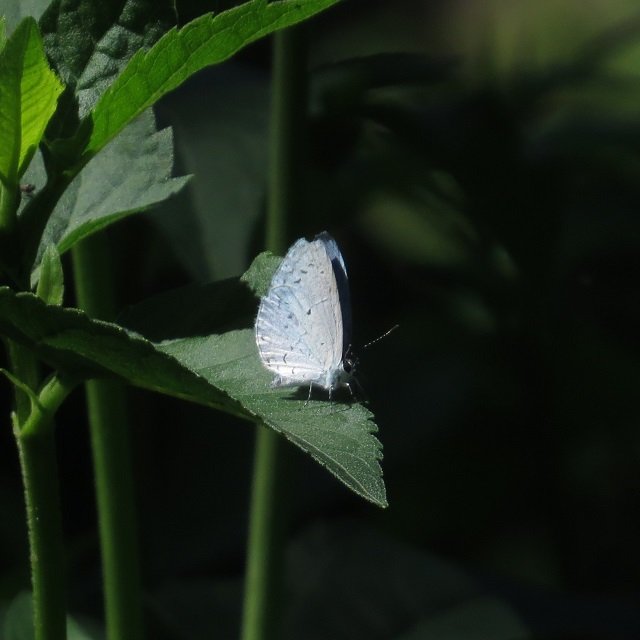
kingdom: Animalia
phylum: Arthropoda
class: Insecta
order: Lepidoptera
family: Lycaenidae
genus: Celastrina
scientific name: Celastrina
